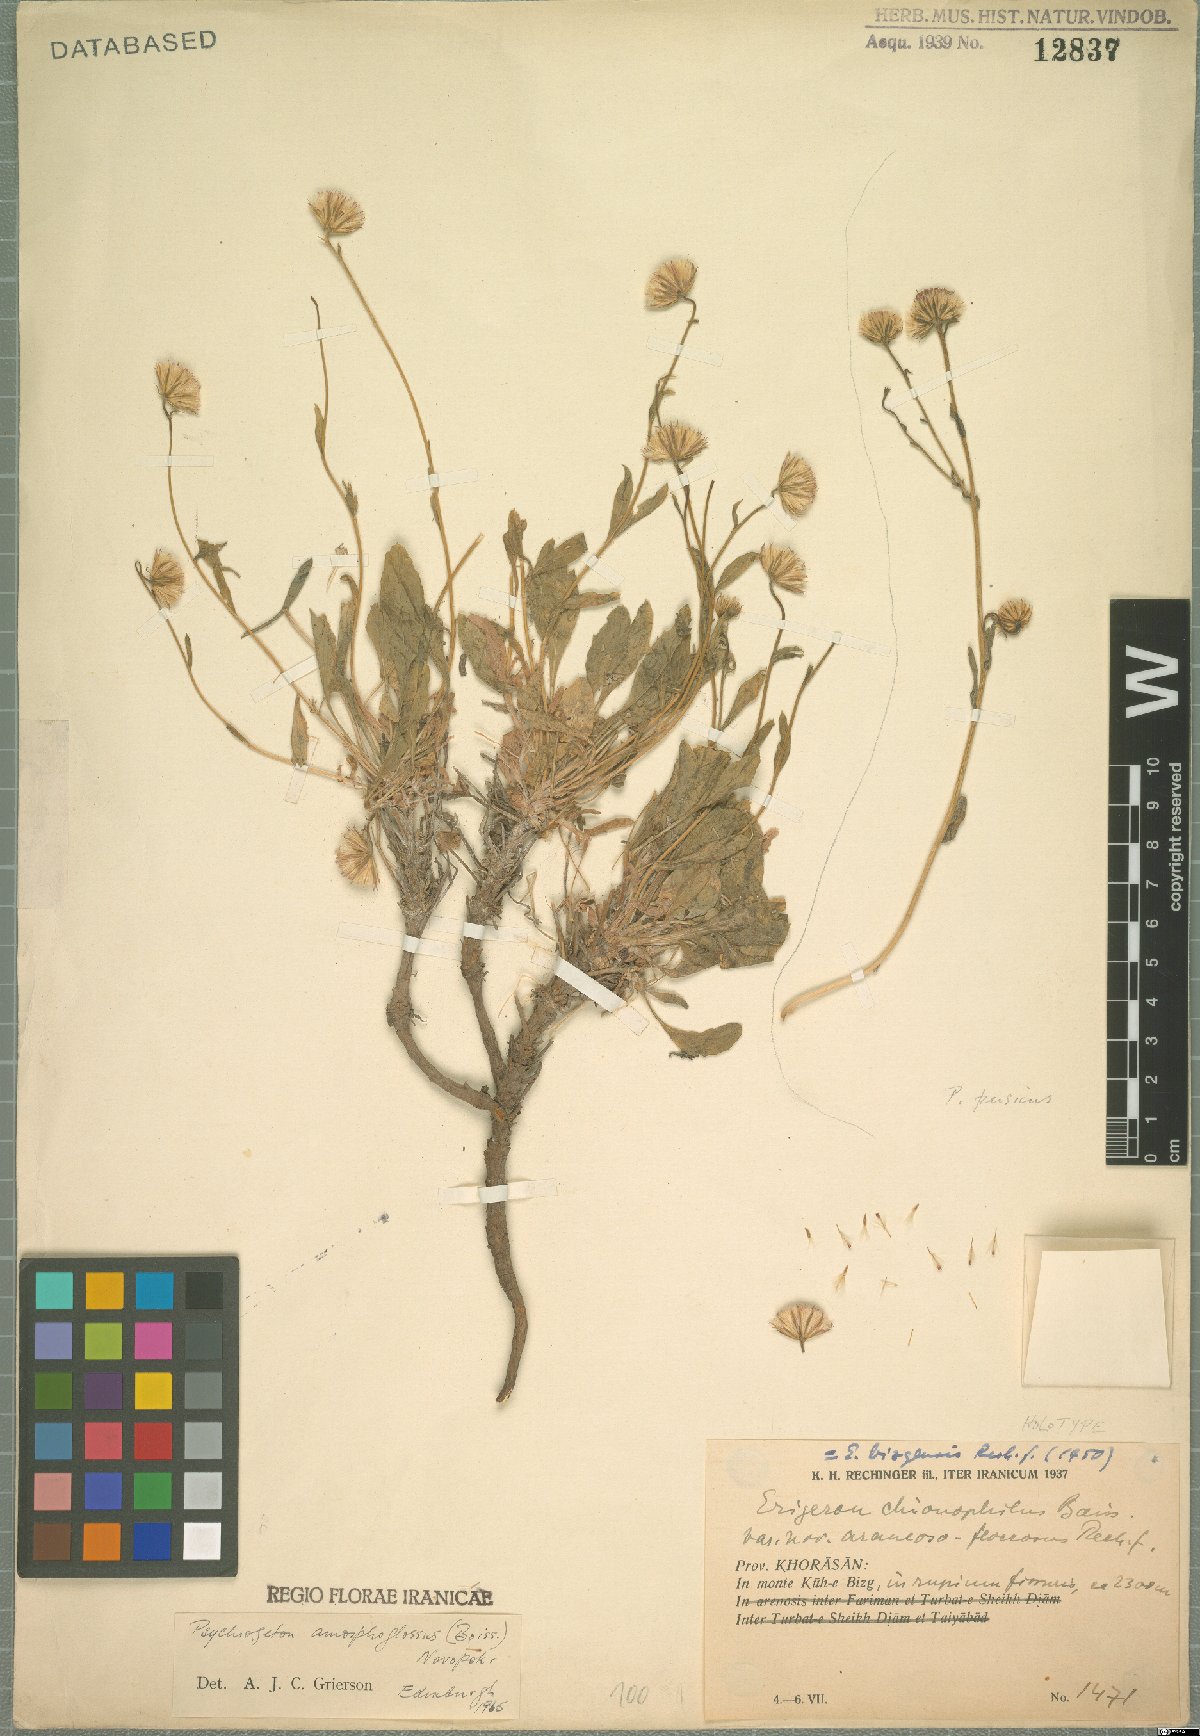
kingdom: Plantae
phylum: Tracheophyta
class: Magnoliopsida
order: Asterales
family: Asteraceae
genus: Psychrogeton
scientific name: Psychrogeton amorphoglossus
